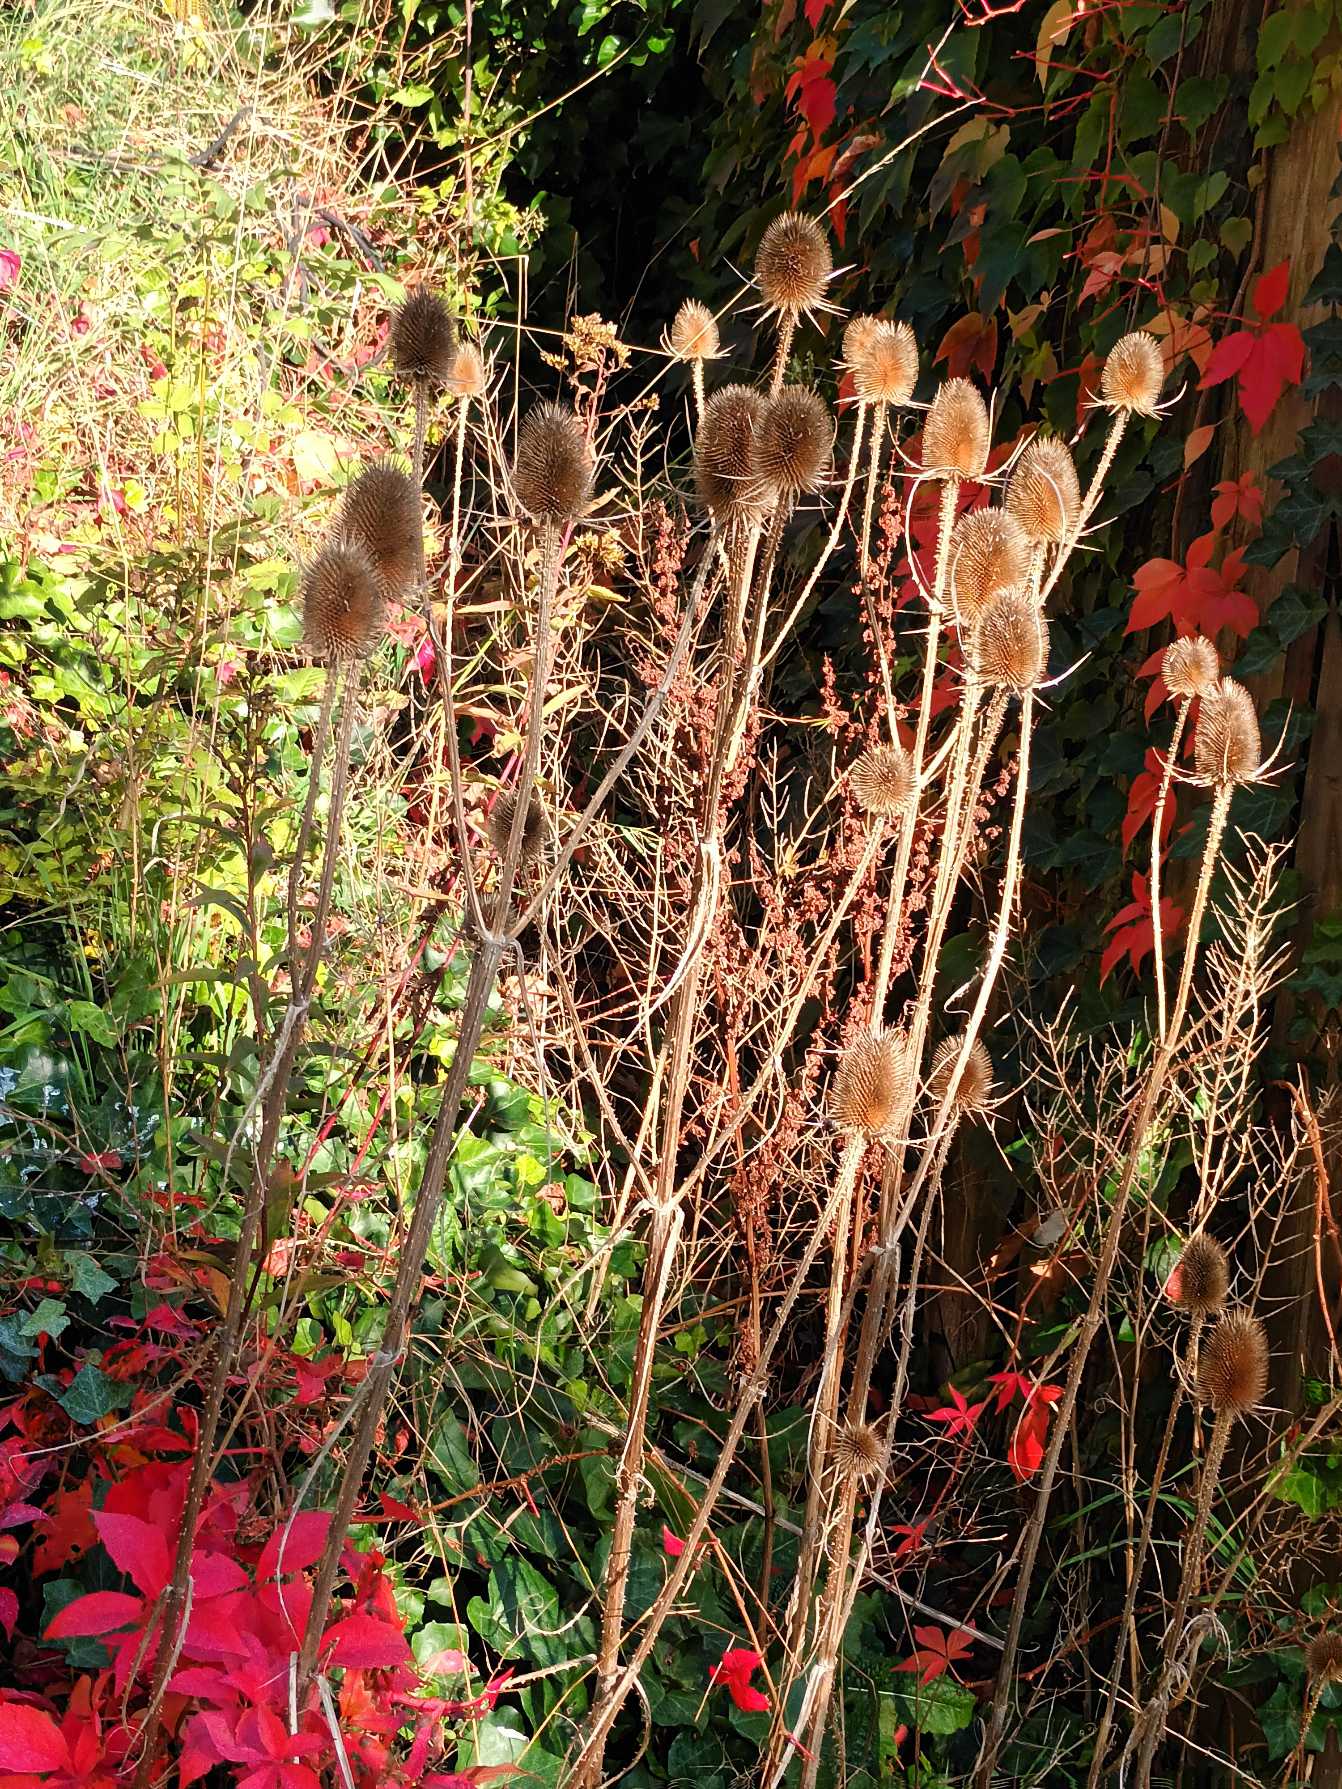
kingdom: Plantae
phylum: Tracheophyta
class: Magnoliopsida
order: Dipsacales
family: Caprifoliaceae
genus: Dipsacus
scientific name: Dipsacus fullonum
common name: Gærde-kartebolle
